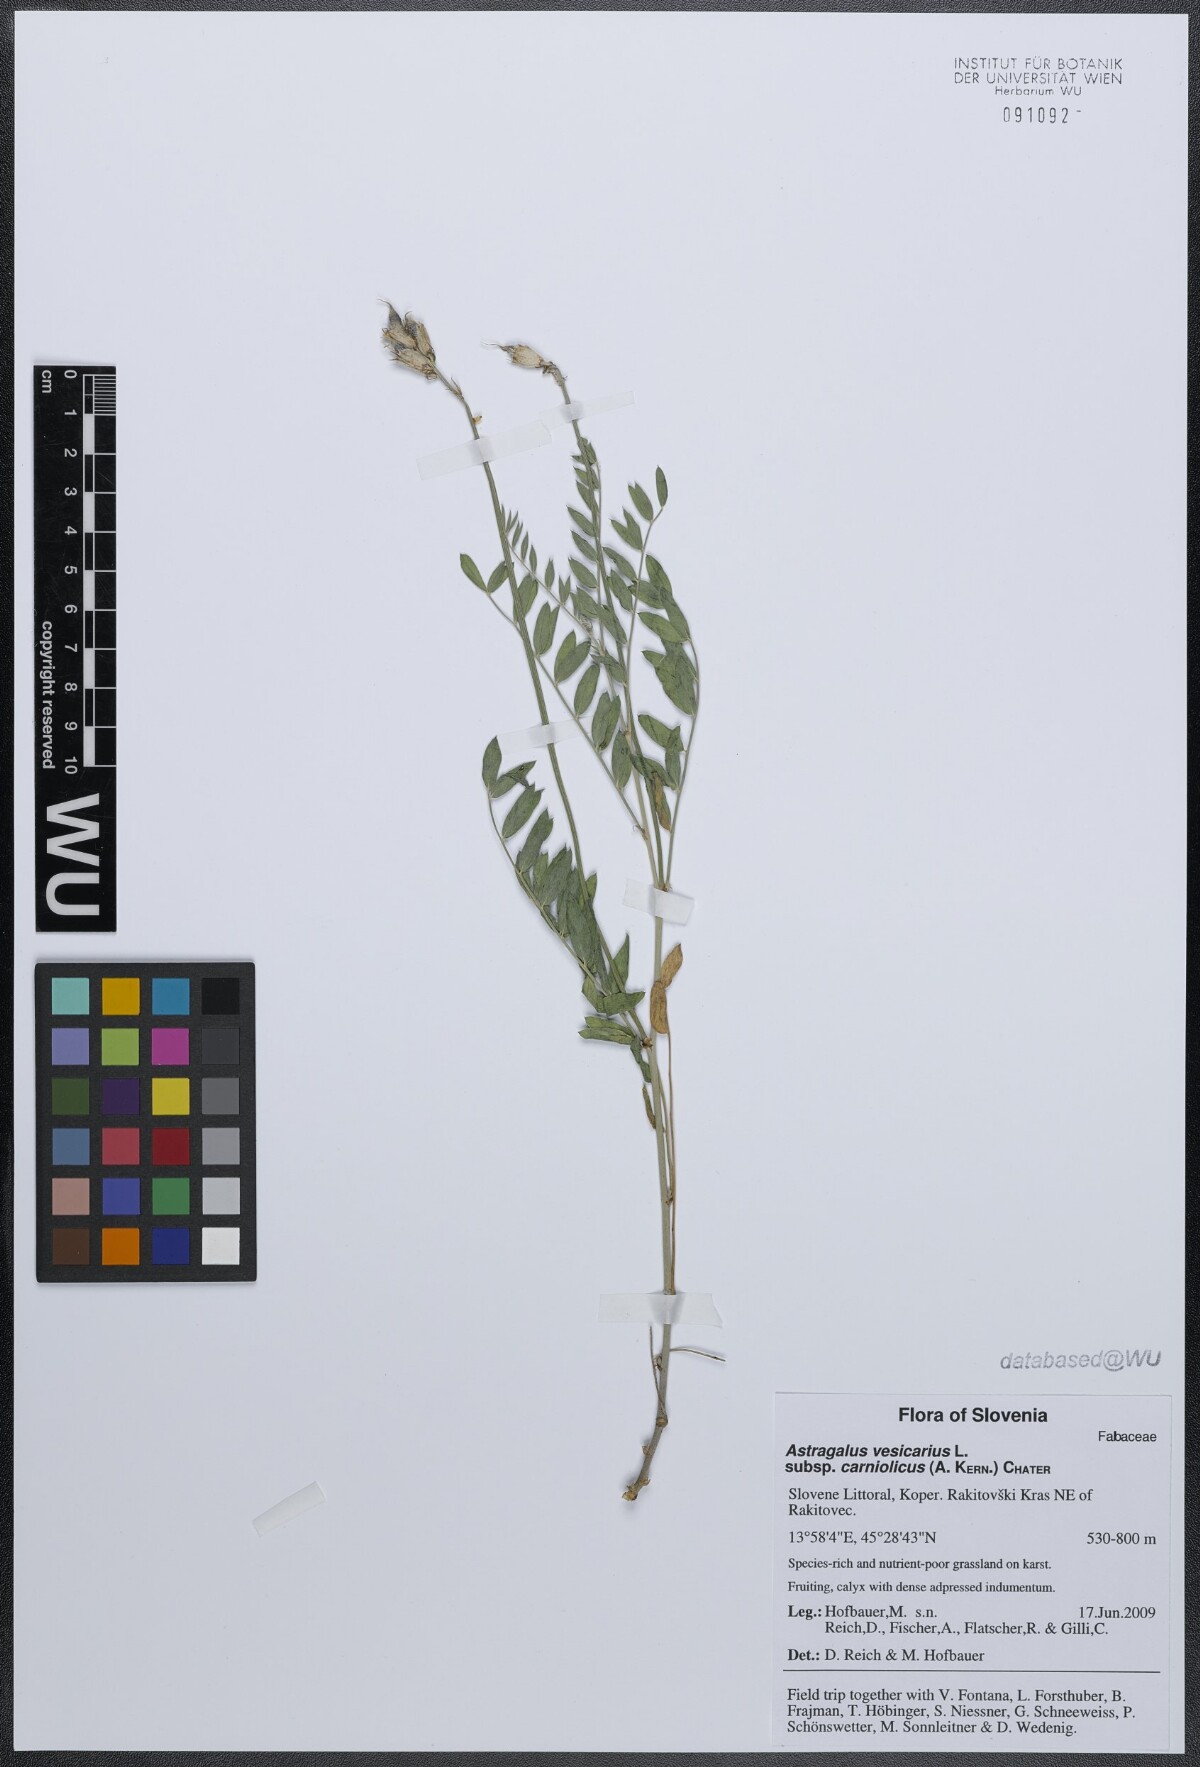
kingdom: Plantae
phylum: Tracheophyta
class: Magnoliopsida
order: Fabales
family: Fabaceae
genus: Astragalus
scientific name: Astragalus vesicarius
